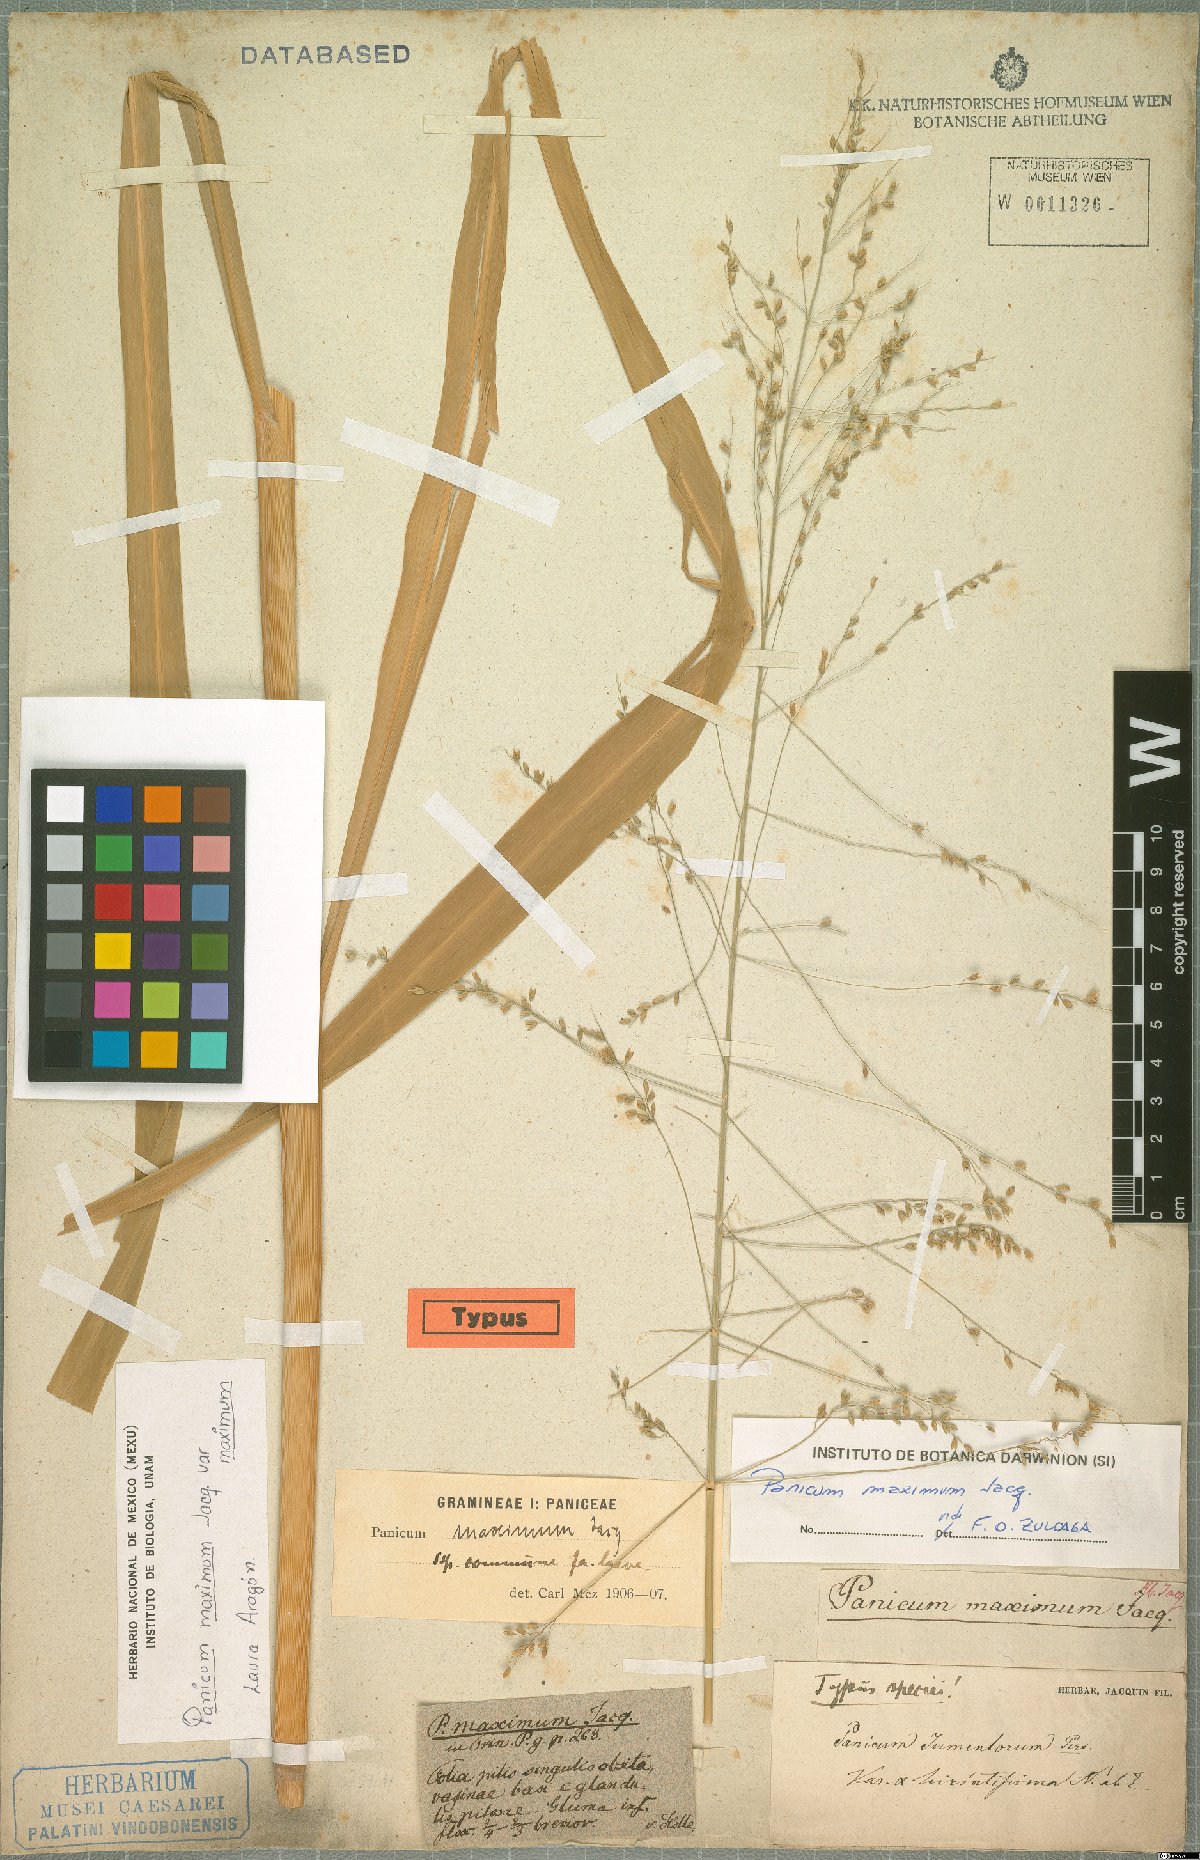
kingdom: Plantae
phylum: Tracheophyta
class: Liliopsida
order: Poales
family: Poaceae
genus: Megathyrsus
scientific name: Megathyrsus maximus
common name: Guineagrass
